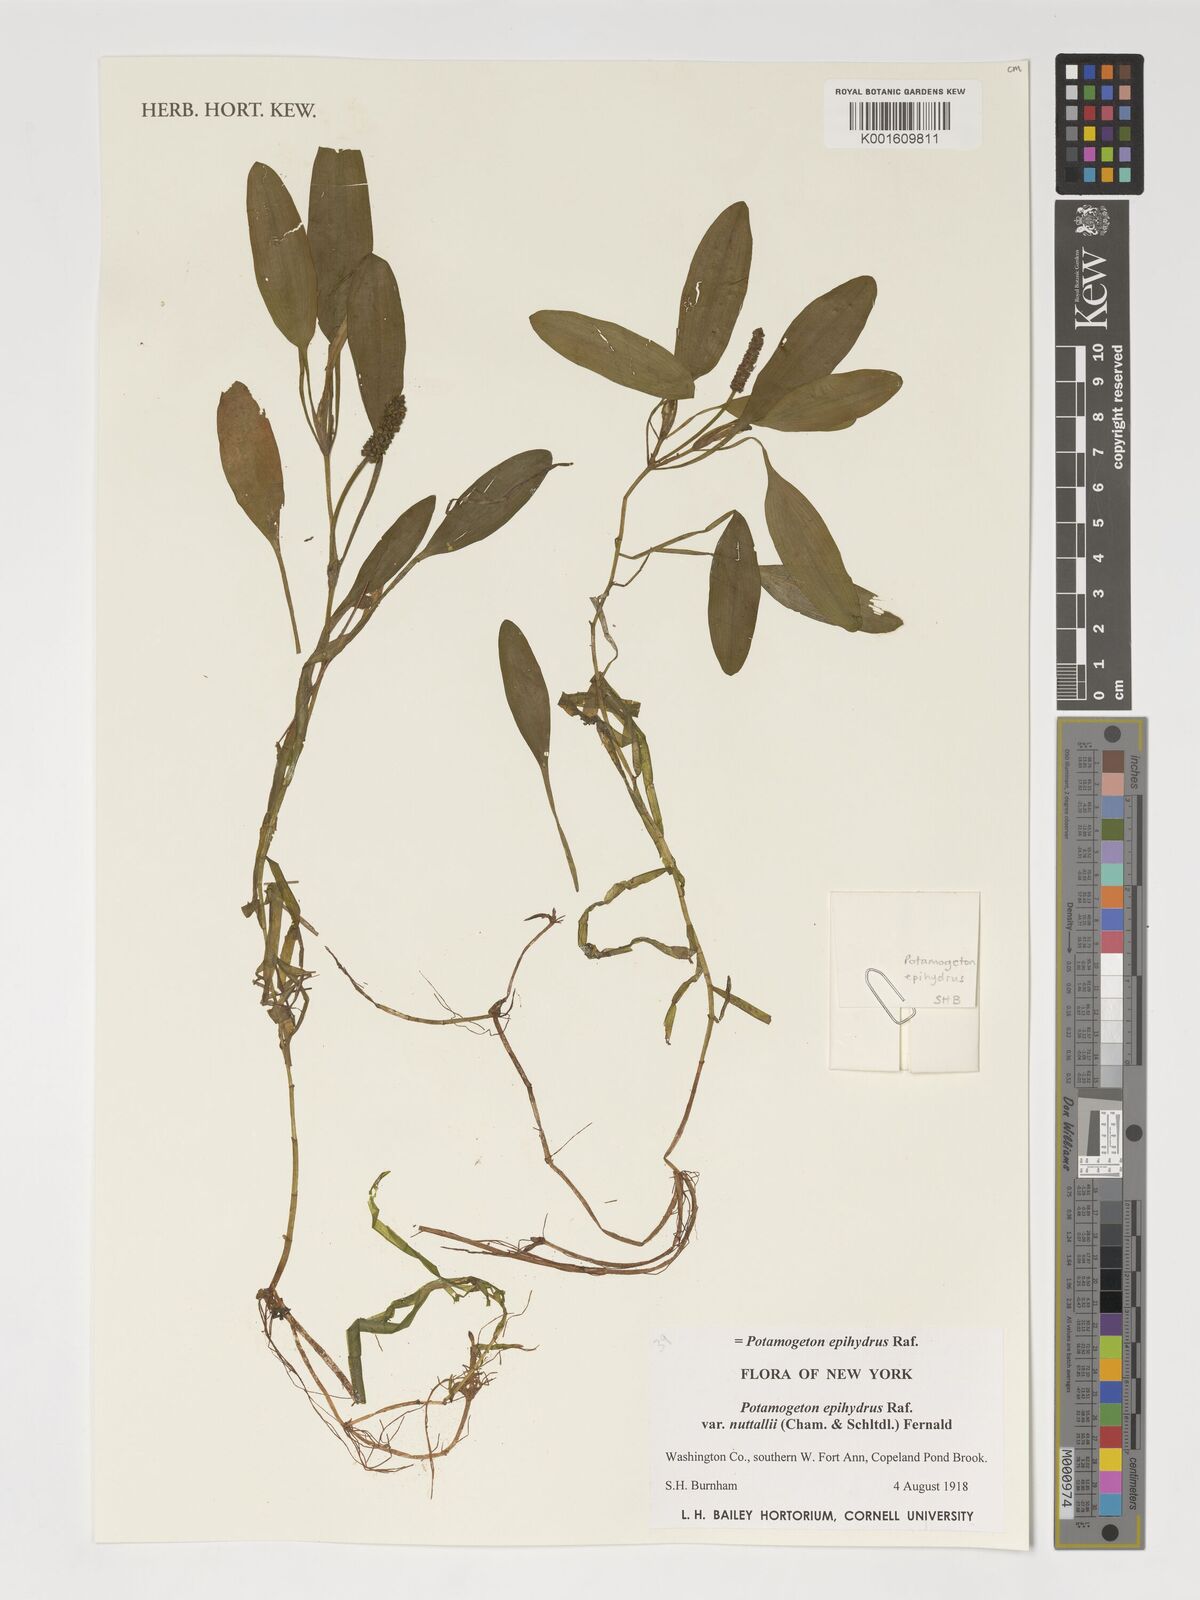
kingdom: Plantae
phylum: Tracheophyta
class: Liliopsida
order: Alismatales
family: Potamogetonaceae
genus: Potamogeton
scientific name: Potamogeton epihydrus
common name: American pondweed
